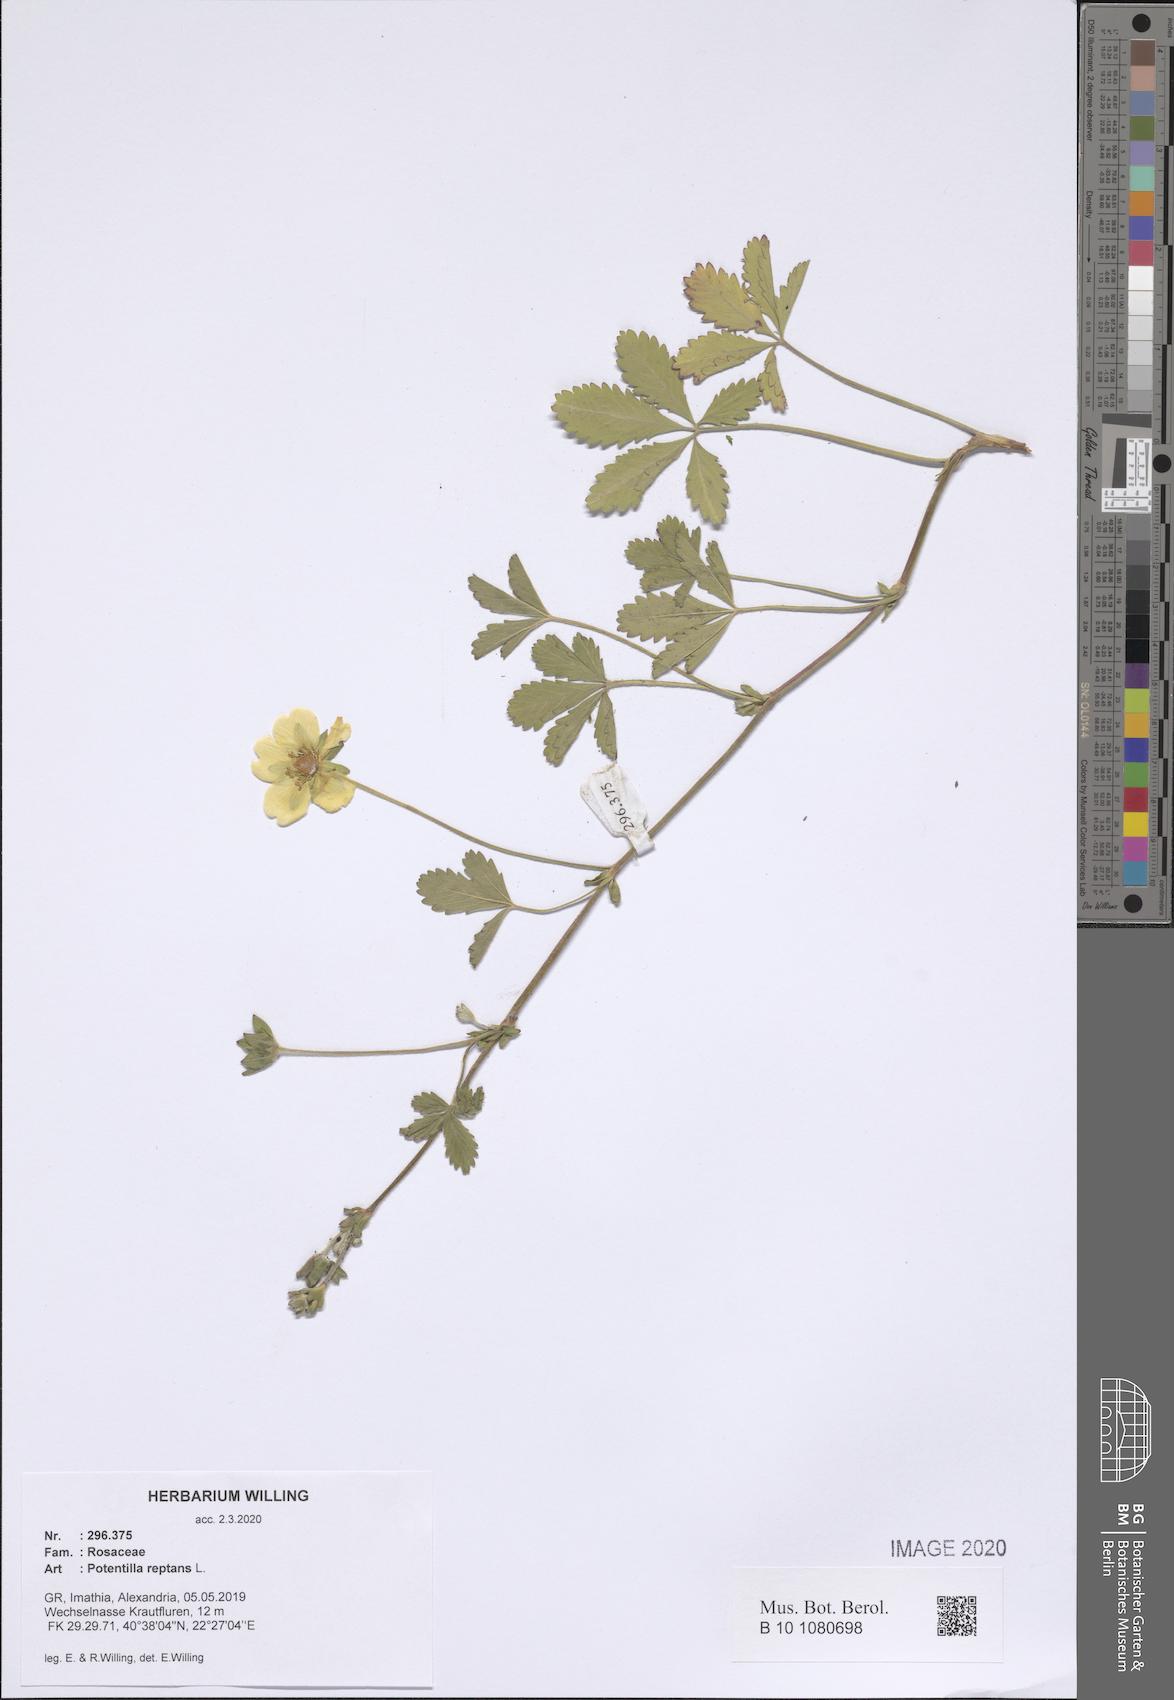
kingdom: Plantae
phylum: Tracheophyta
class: Magnoliopsida
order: Rosales
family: Rosaceae
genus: Potentilla
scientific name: Potentilla reptans
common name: Creeping cinquefoil
